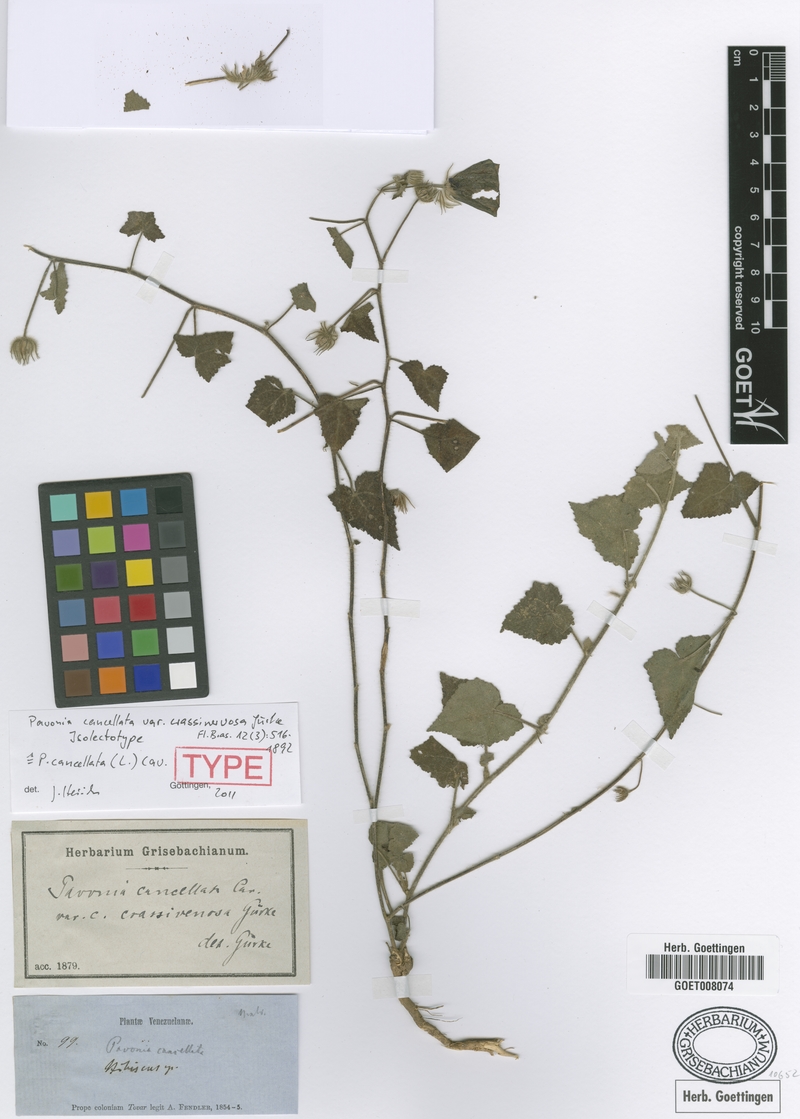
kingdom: Plantae
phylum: Tracheophyta
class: Magnoliopsida
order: Malvales
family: Malvaceae
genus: Pavonia
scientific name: Pavonia cancellata
